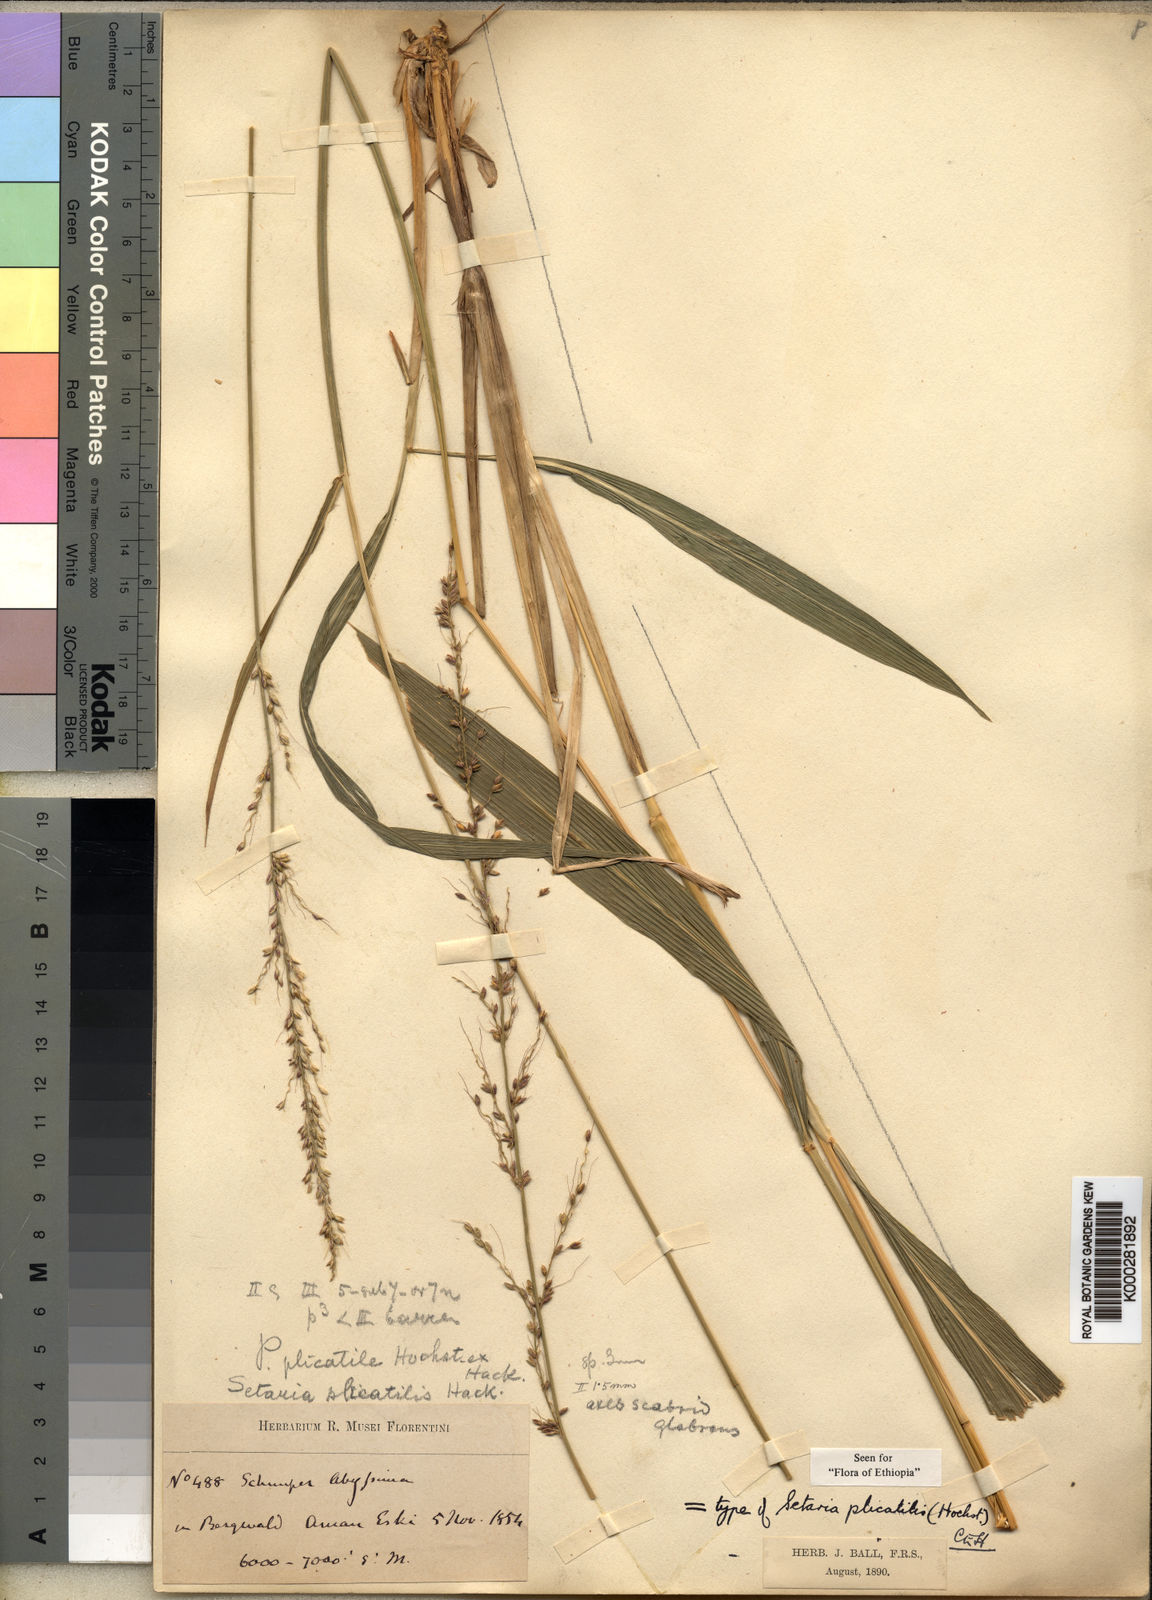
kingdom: Plantae
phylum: Tracheophyta
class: Liliopsida
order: Poales
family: Poaceae
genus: Setaria
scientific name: Setaria megaphylla
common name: Bigleaf bristlegrass
